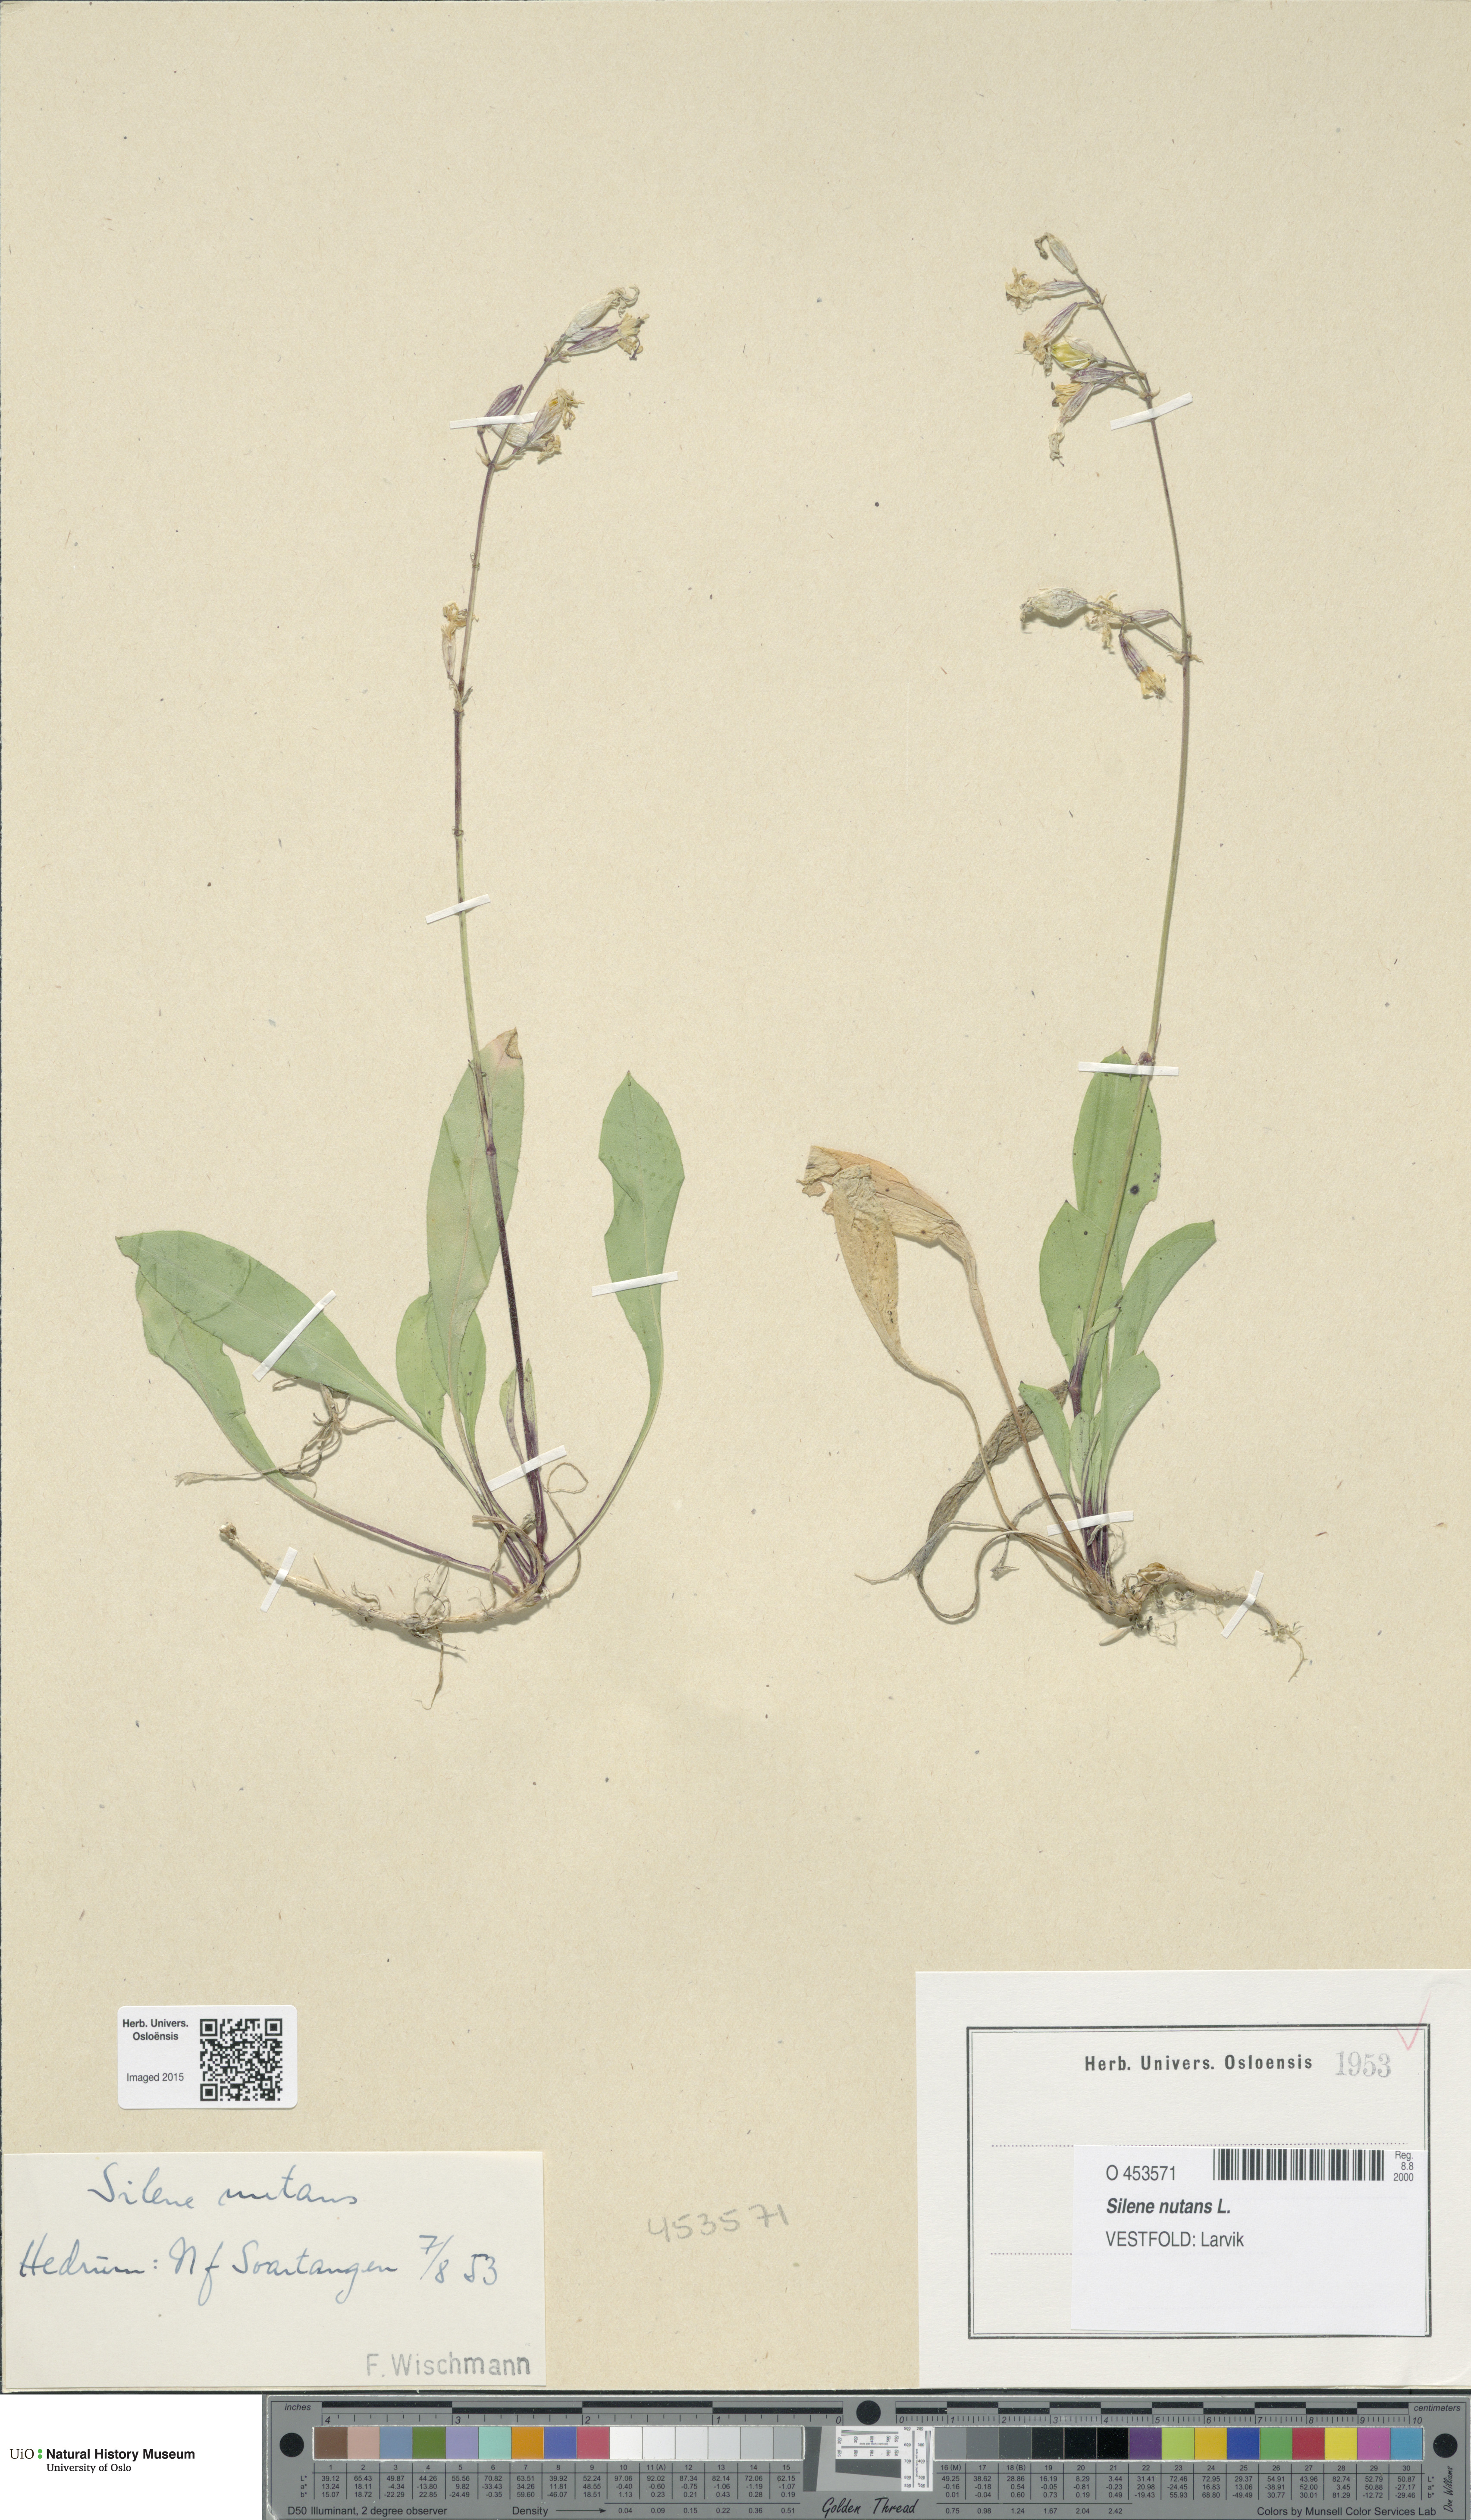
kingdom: Plantae
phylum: Tracheophyta
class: Magnoliopsida
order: Caryophyllales
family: Caryophyllaceae
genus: Silene
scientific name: Silene nutans
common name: Nottingham catchfly
